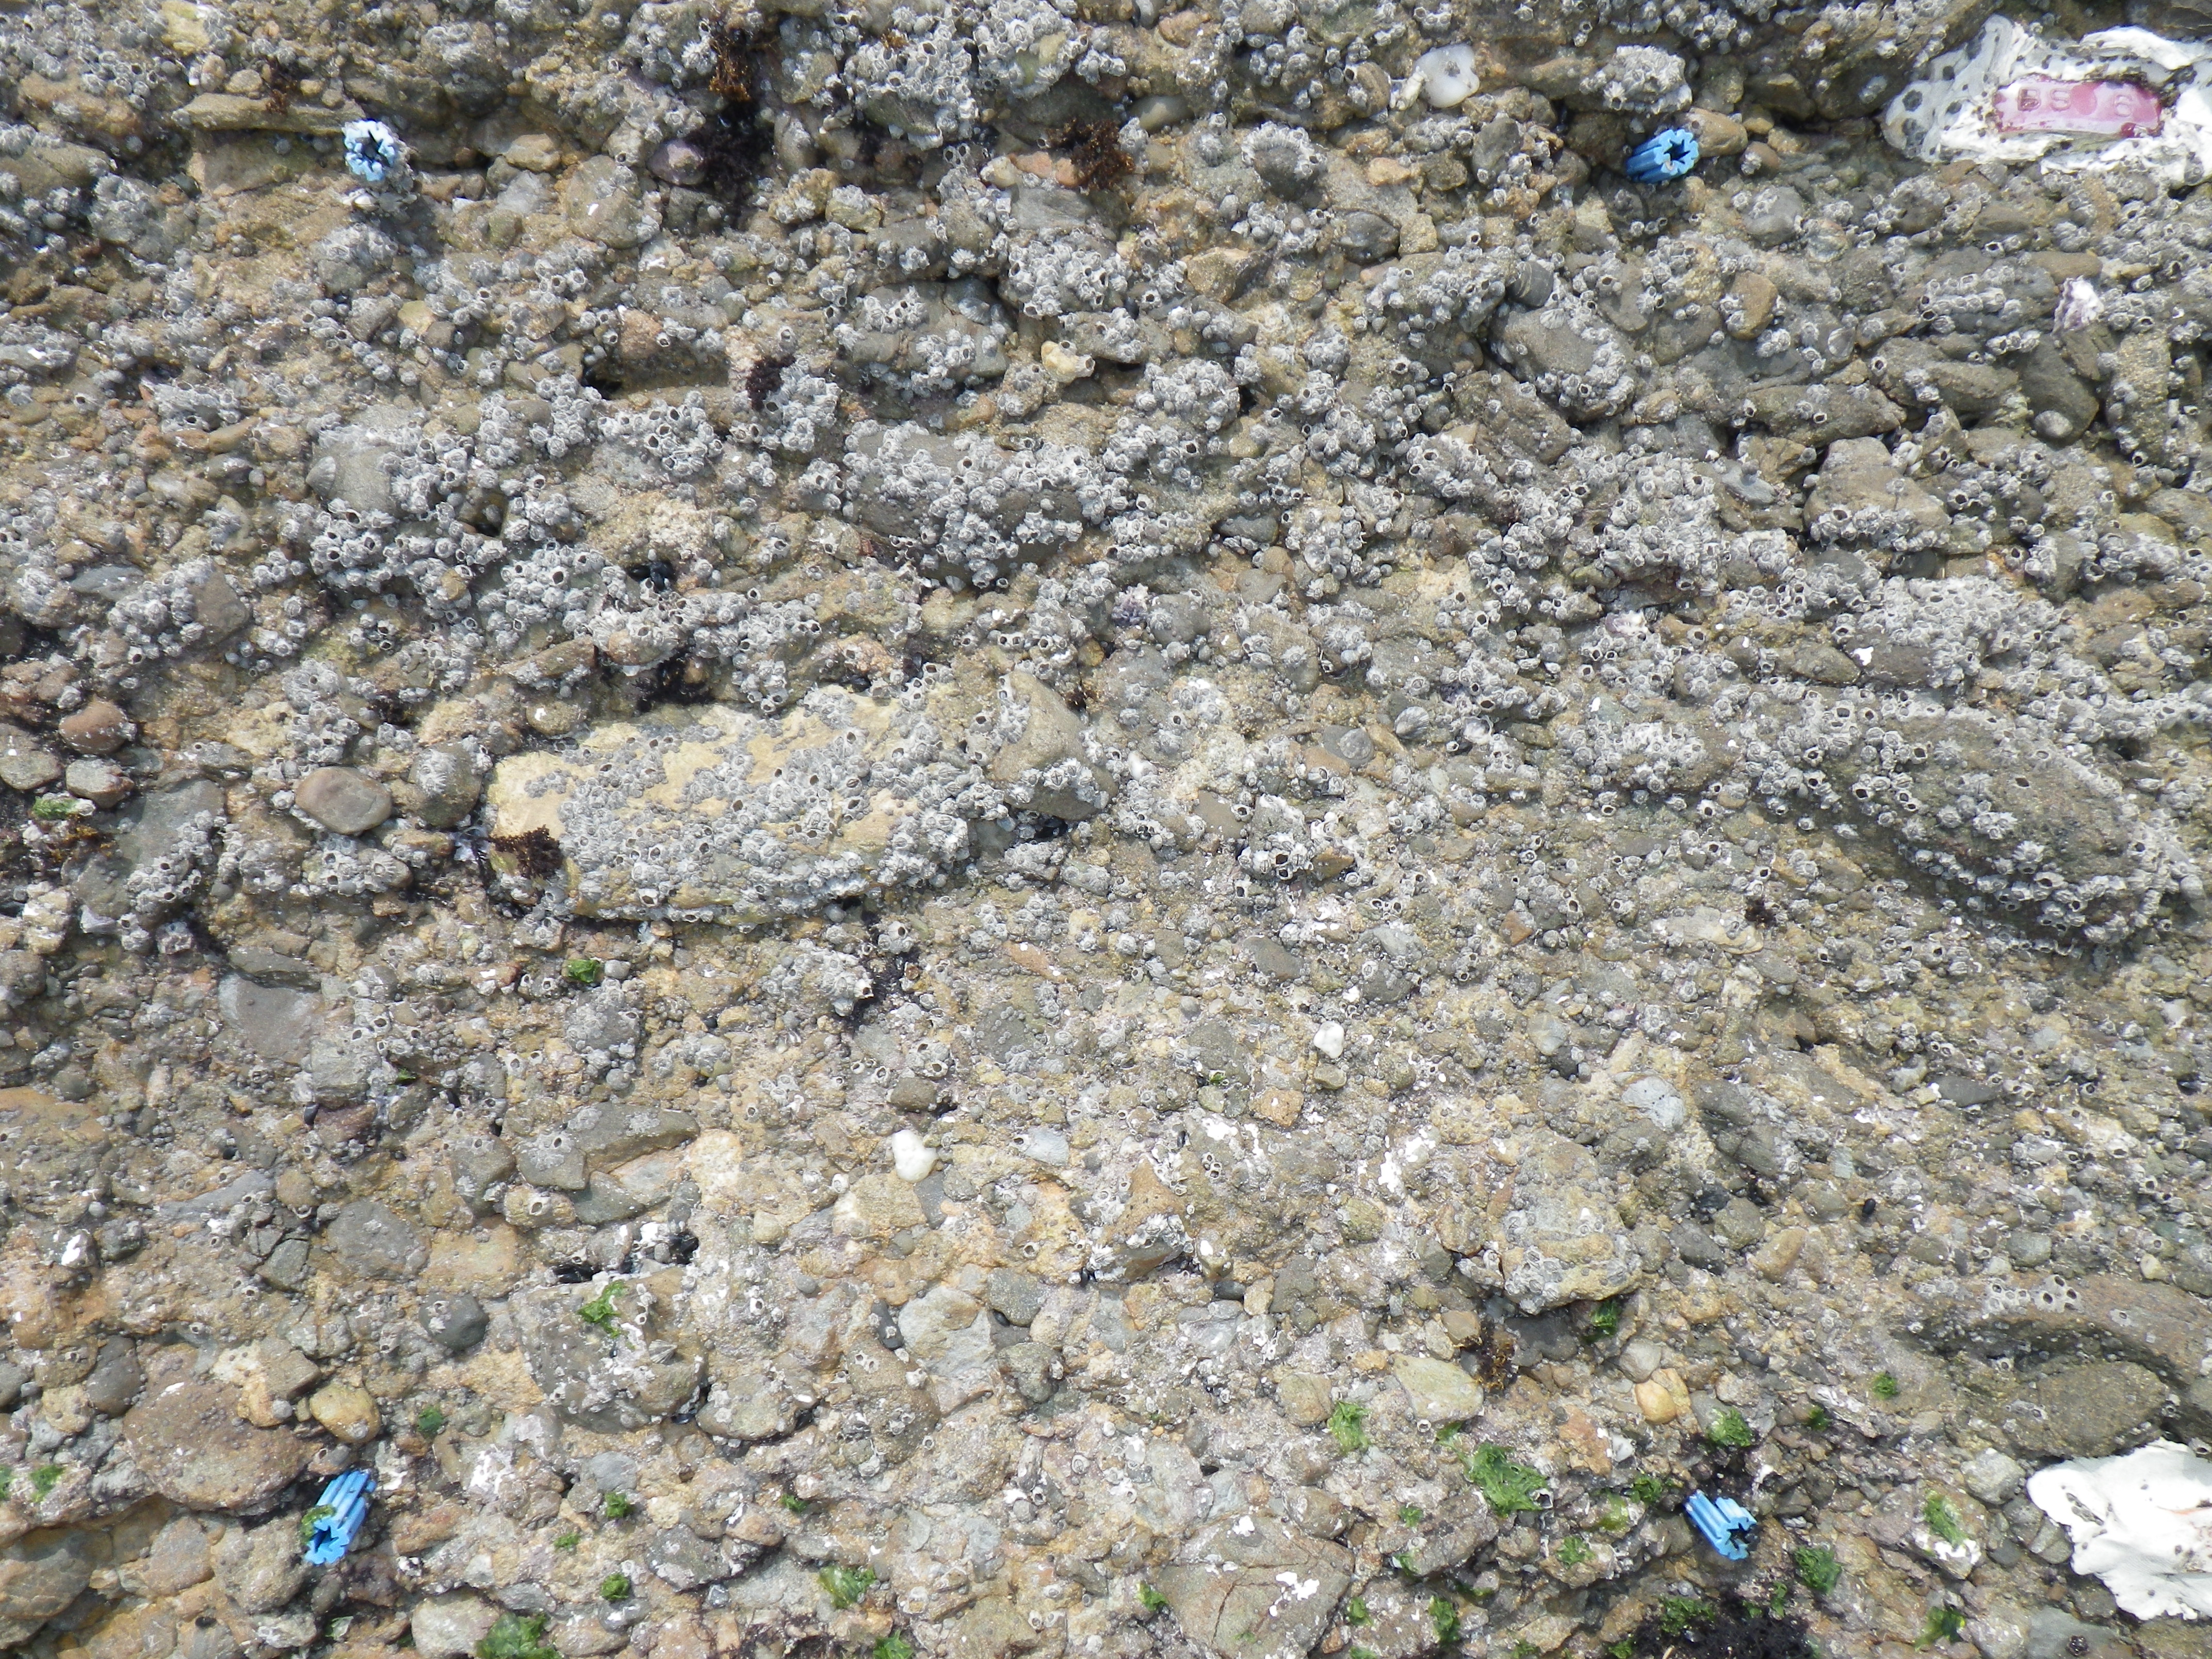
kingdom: Animalia
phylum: Arthropoda
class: Maxillopoda
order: Sessilia
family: Chthamalidae
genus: Chthamalus
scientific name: Chthamalus challengeri
